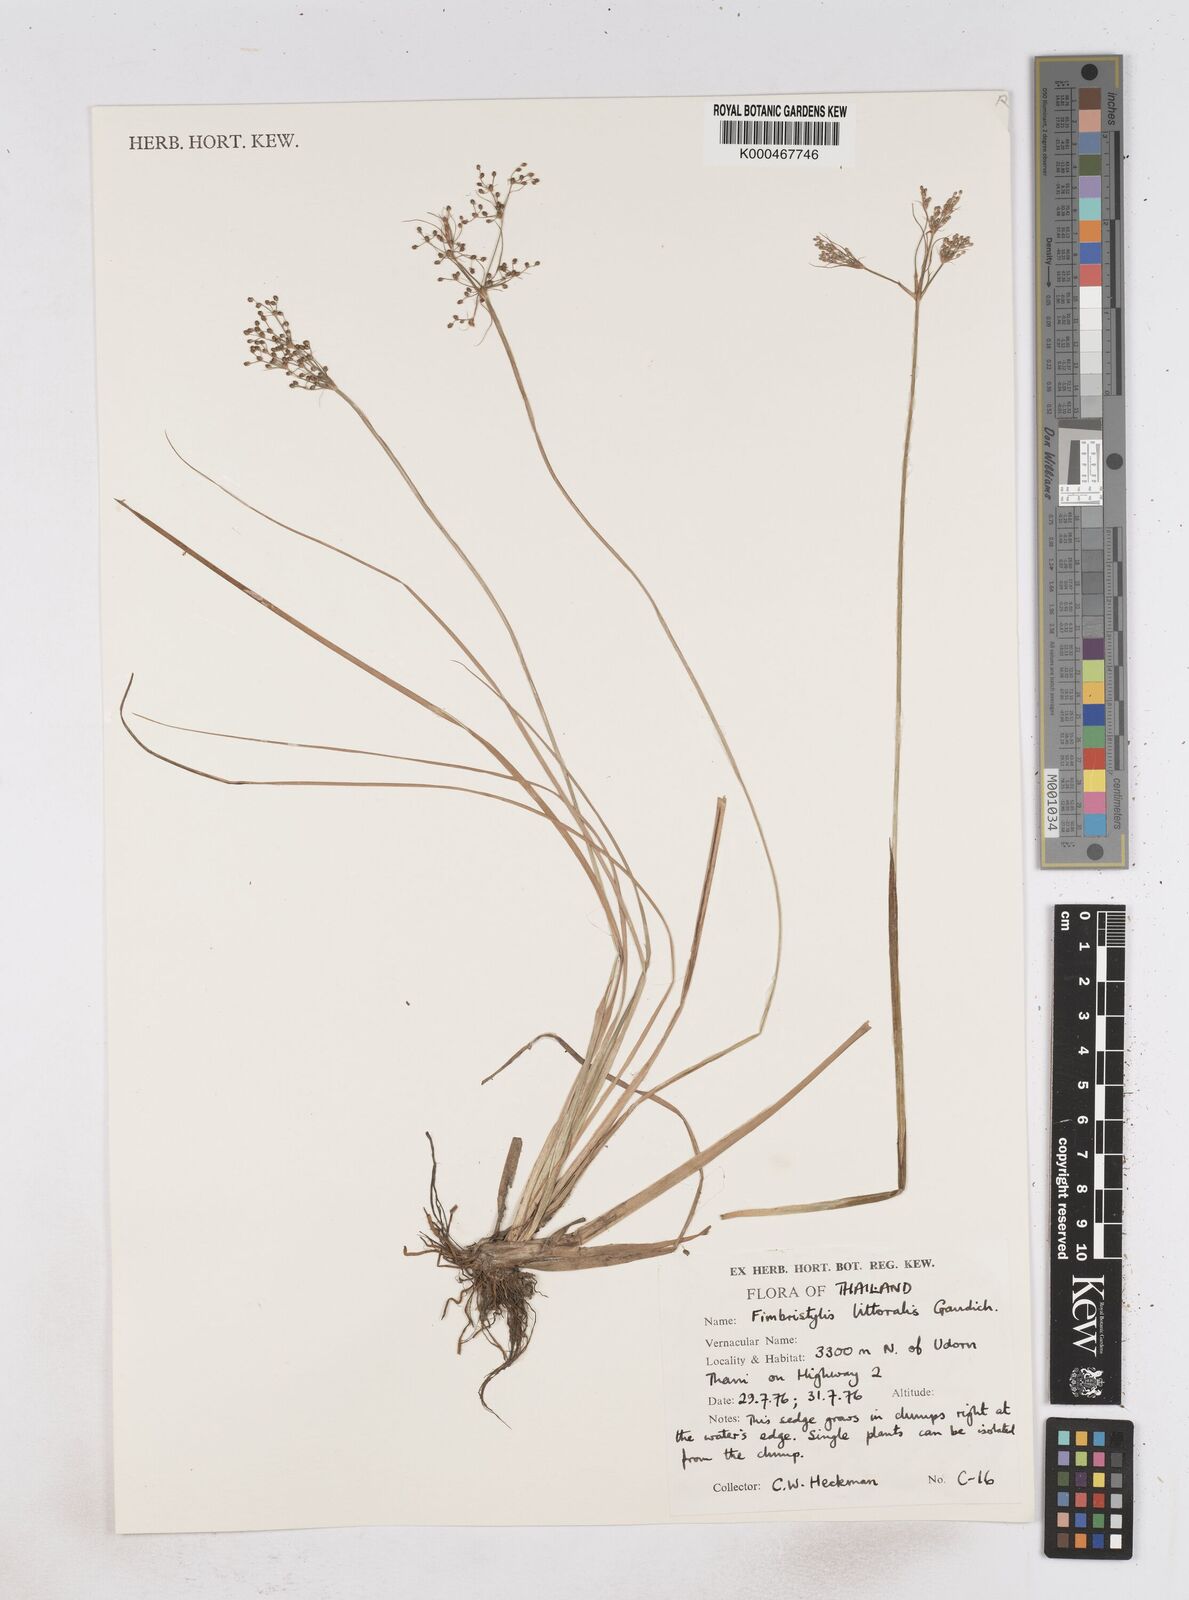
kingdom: Plantae
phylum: Tracheophyta
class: Liliopsida
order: Poales
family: Cyperaceae
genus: Fimbristylis
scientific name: Fimbristylis quinquangularis
